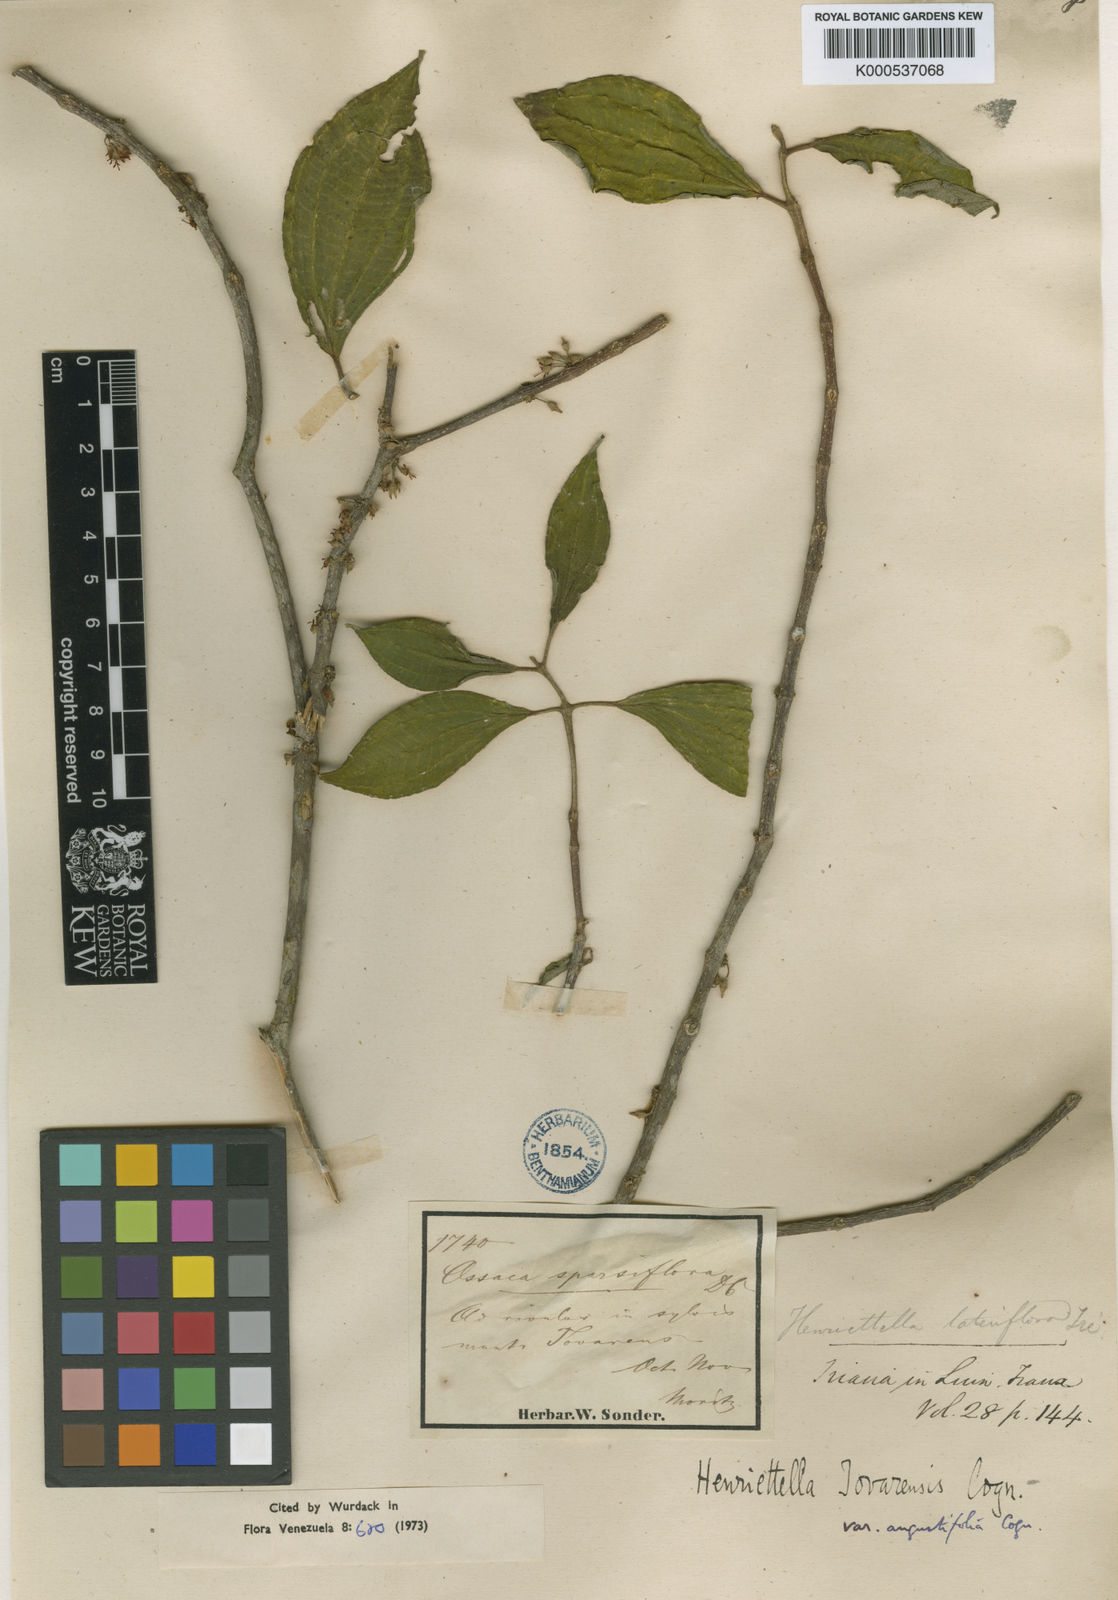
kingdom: Plantae
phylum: Tracheophyta
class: Magnoliopsida
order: Myrtales
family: Melastomataceae
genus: Henriettea
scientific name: Henriettea tovarensis
